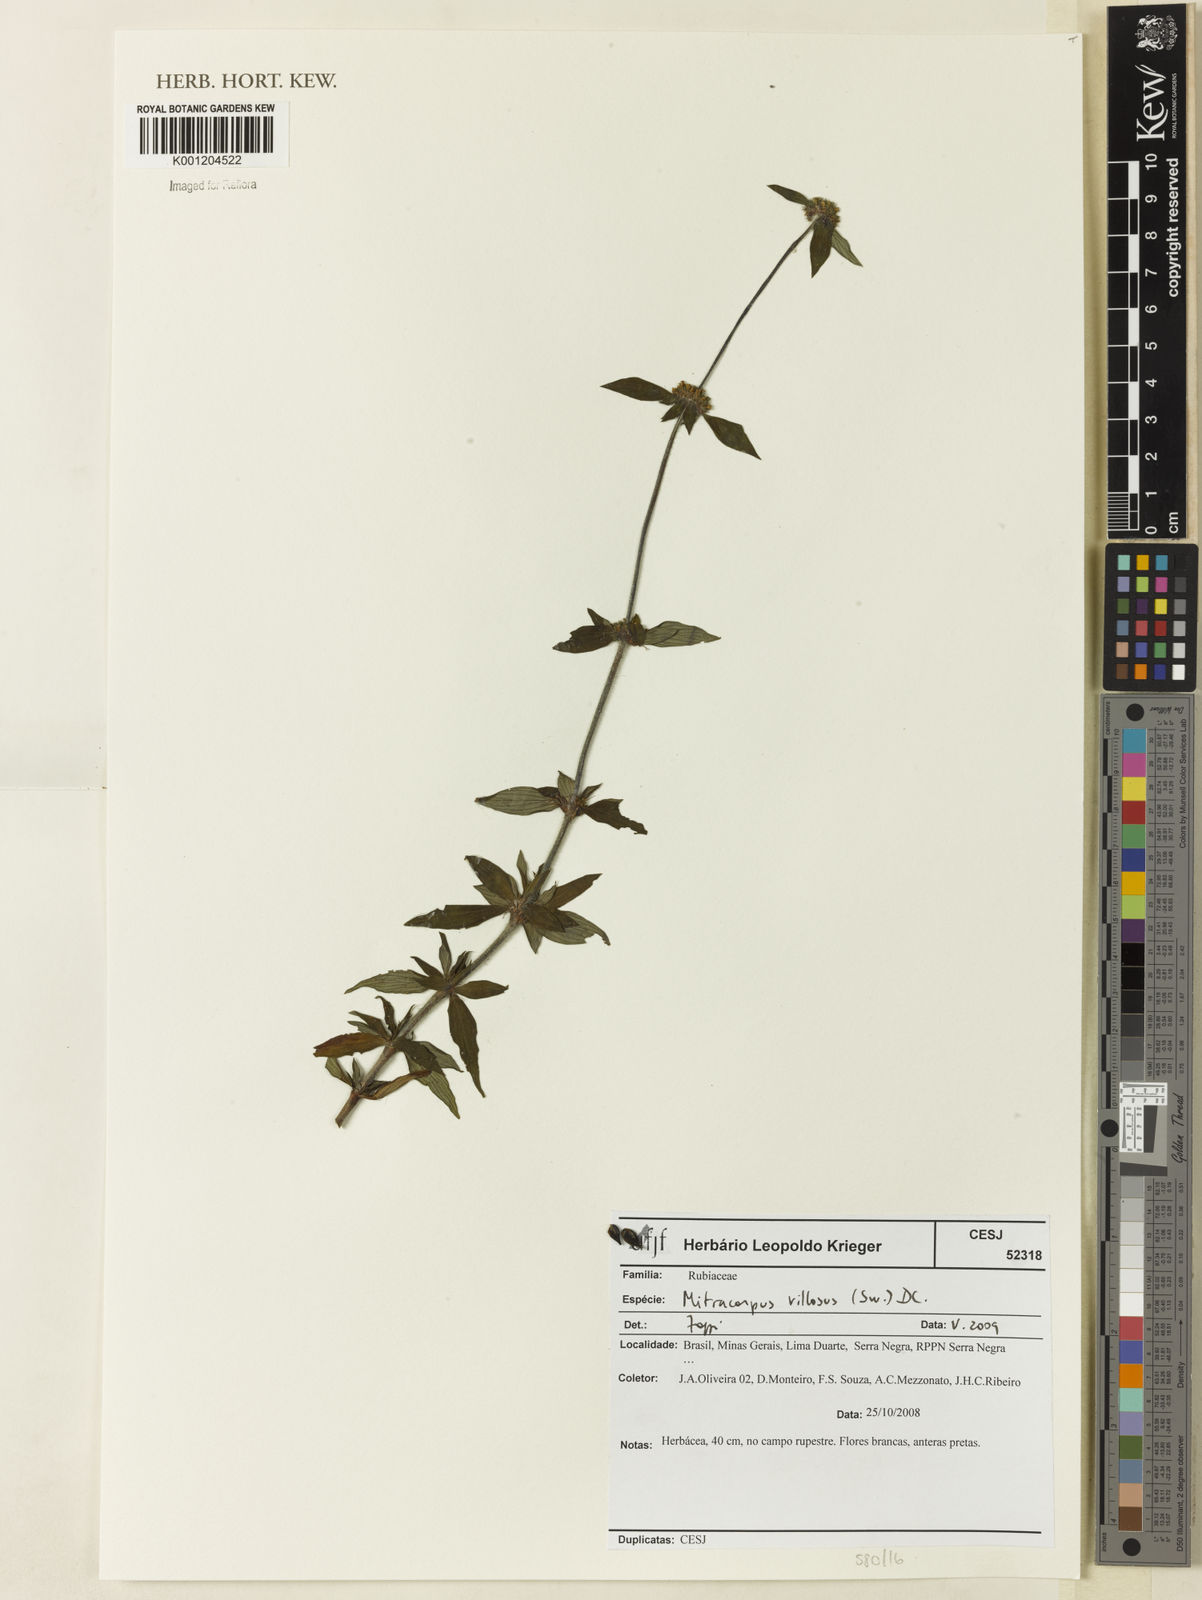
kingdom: Plantae
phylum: Tracheophyta
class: Magnoliopsida
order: Gentianales
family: Rubiaceae
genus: Mitracarpus
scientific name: Mitracarpus hirtus
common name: Tropical girdlepod
